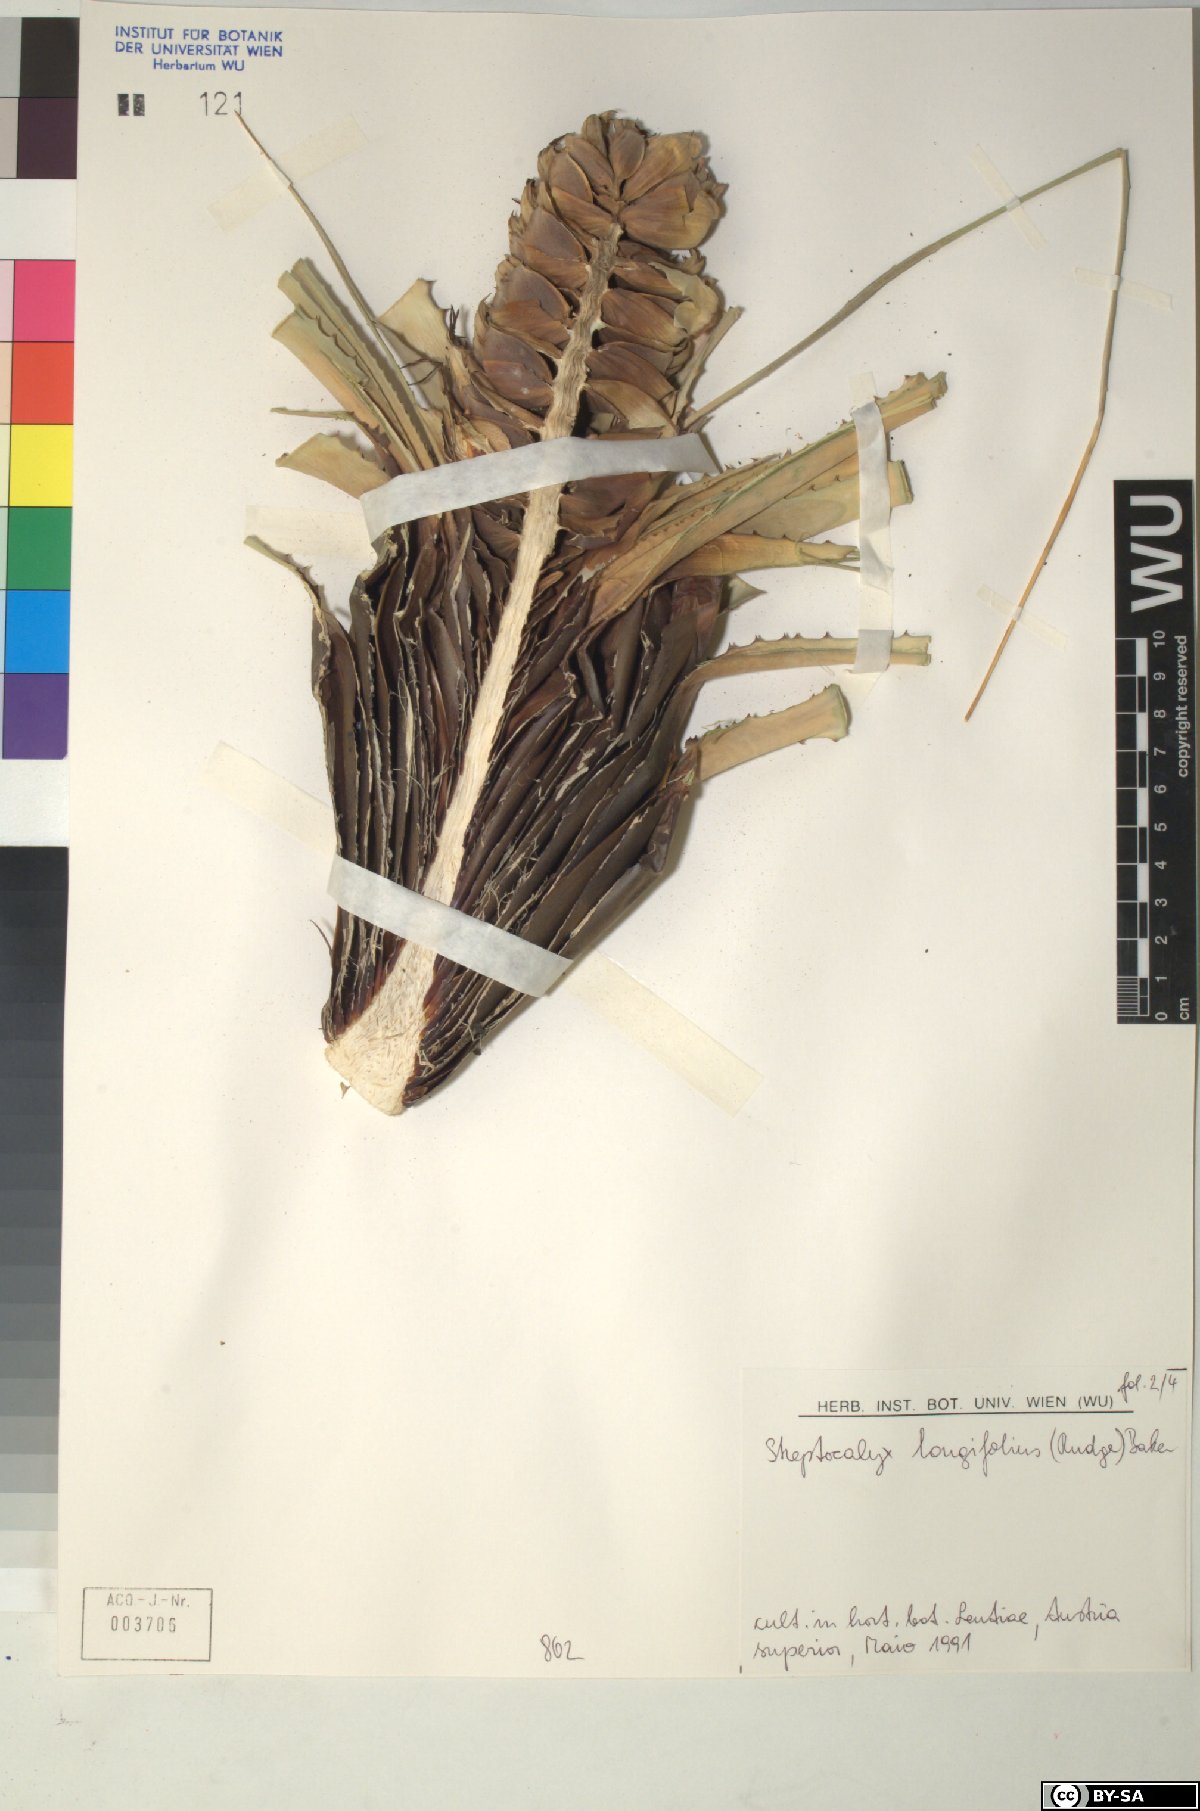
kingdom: Plantae
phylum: Tracheophyta
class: Liliopsida
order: Poales
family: Bromeliaceae
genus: Aechmea
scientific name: Aechmea
